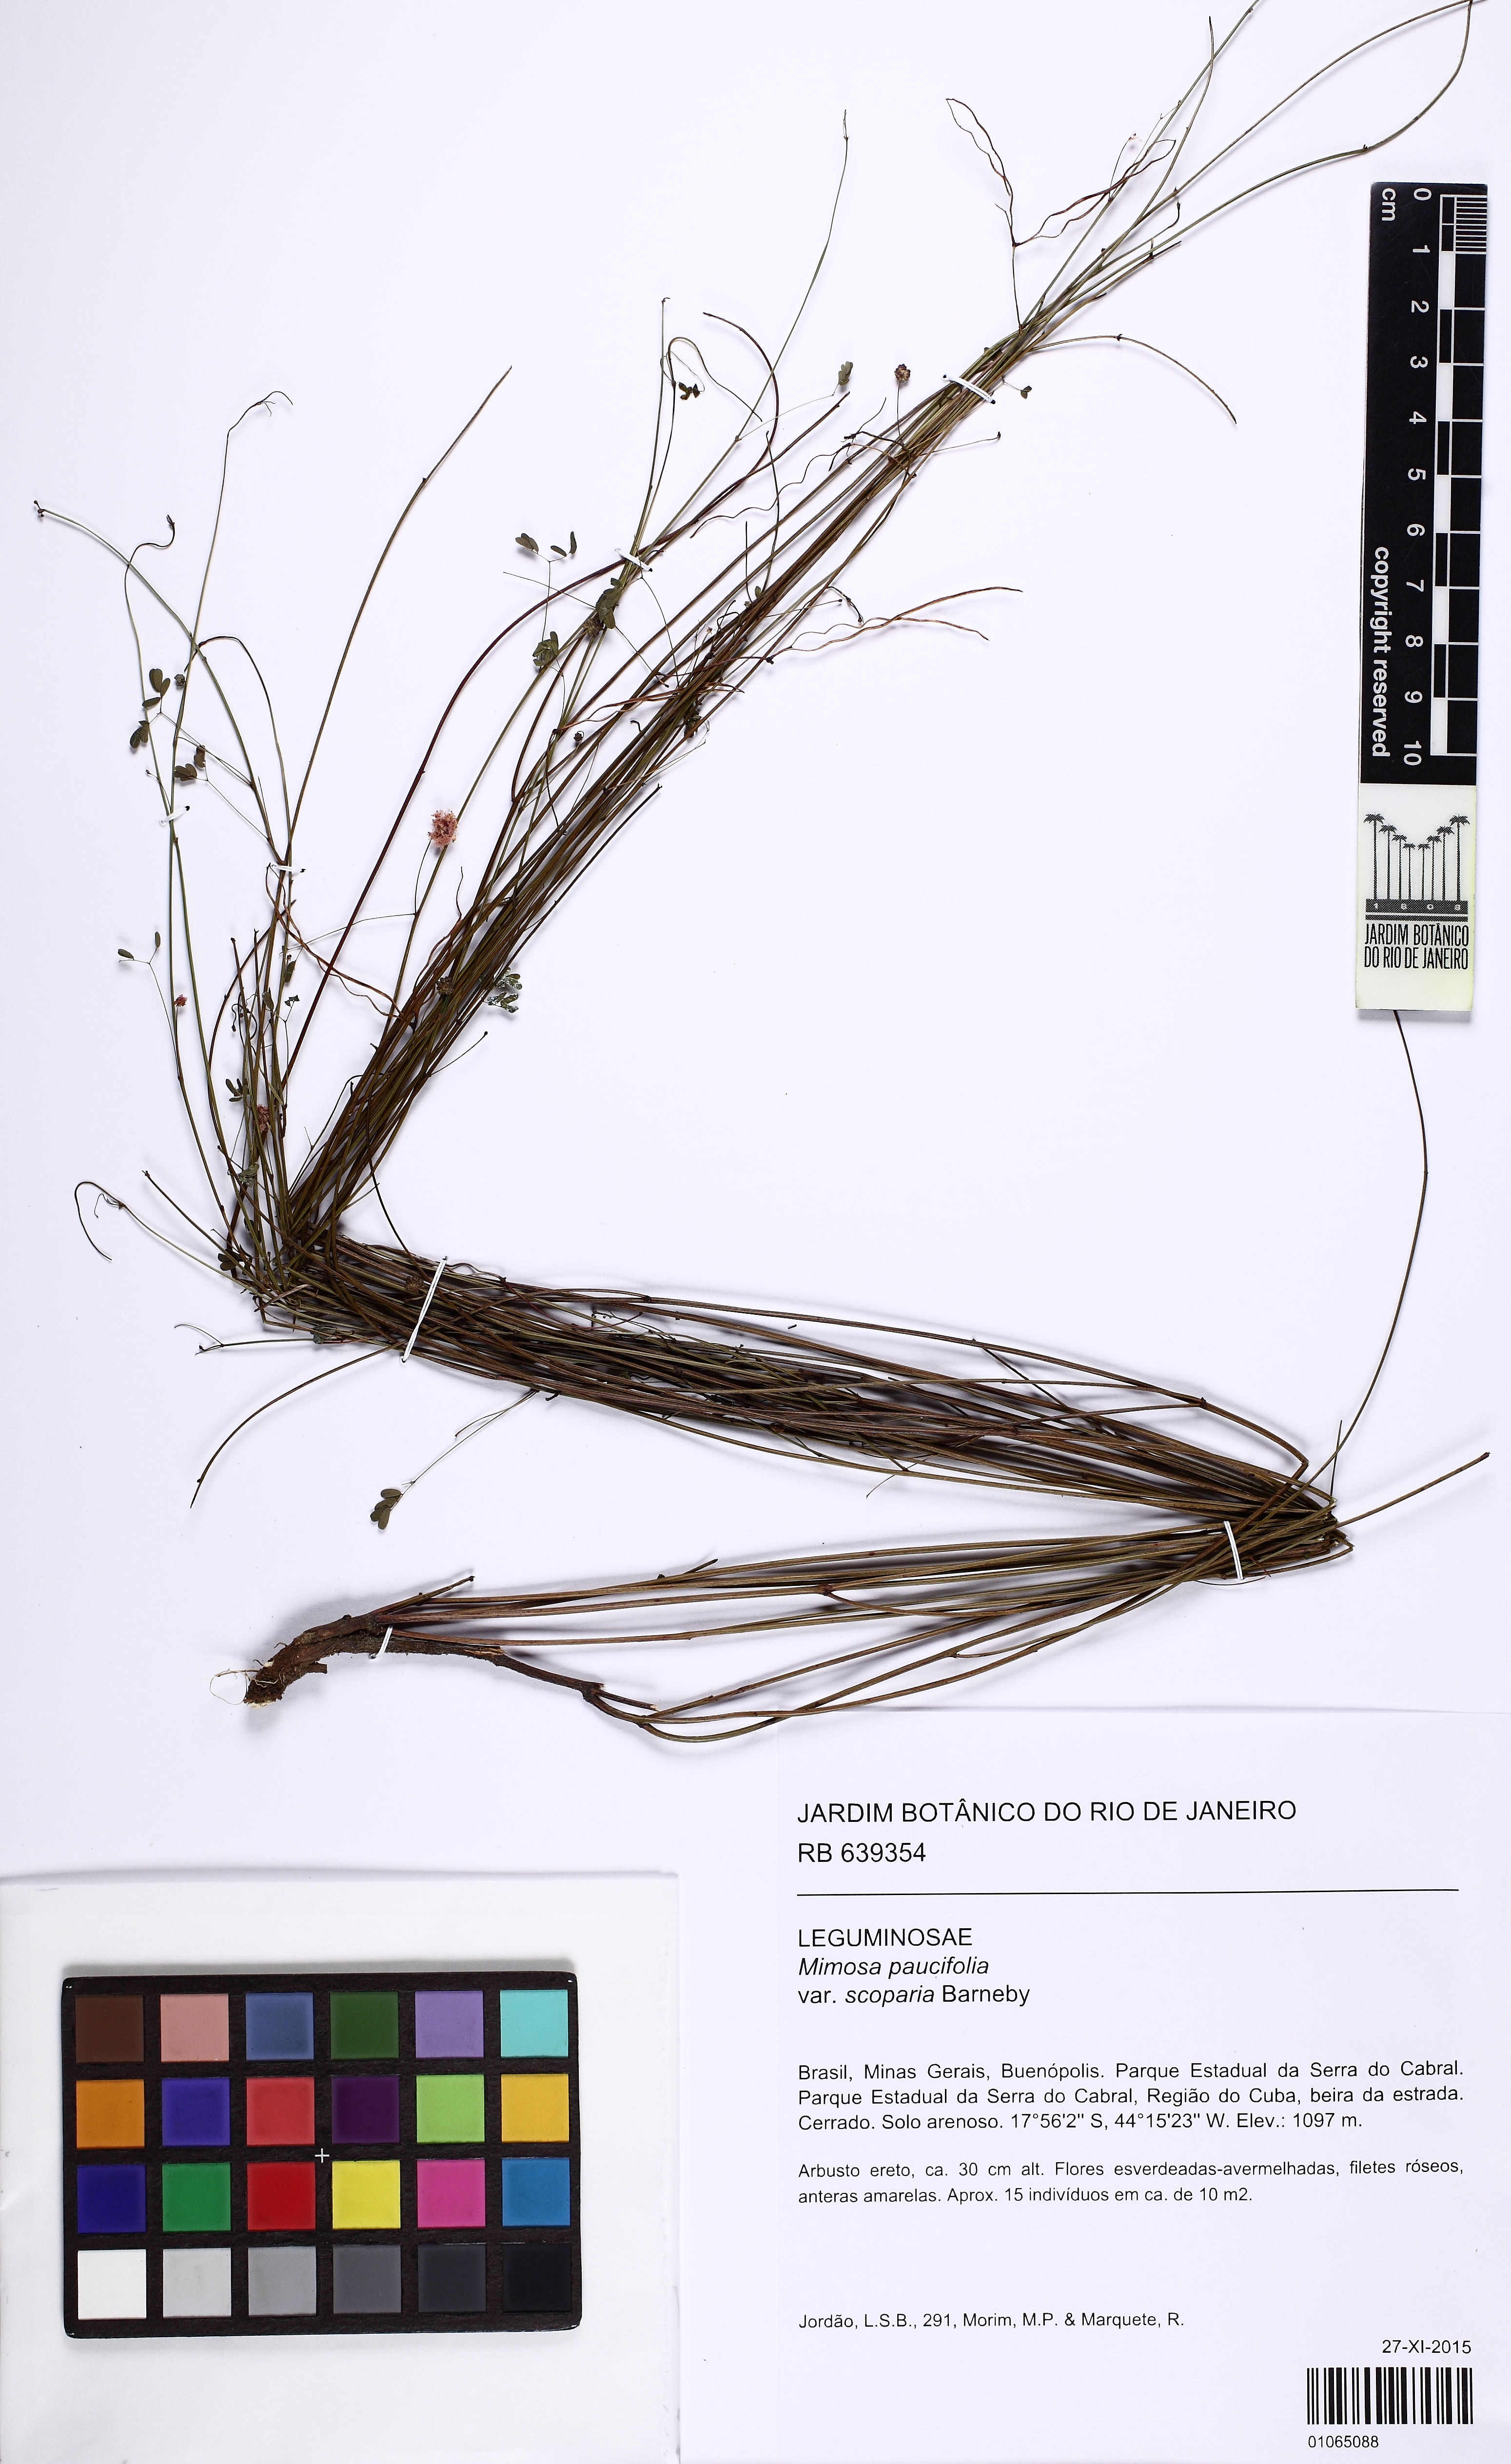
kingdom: Plantae
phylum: Tracheophyta
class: Magnoliopsida
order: Fabales
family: Fabaceae
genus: Mimosa
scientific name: Mimosa paucifolia
